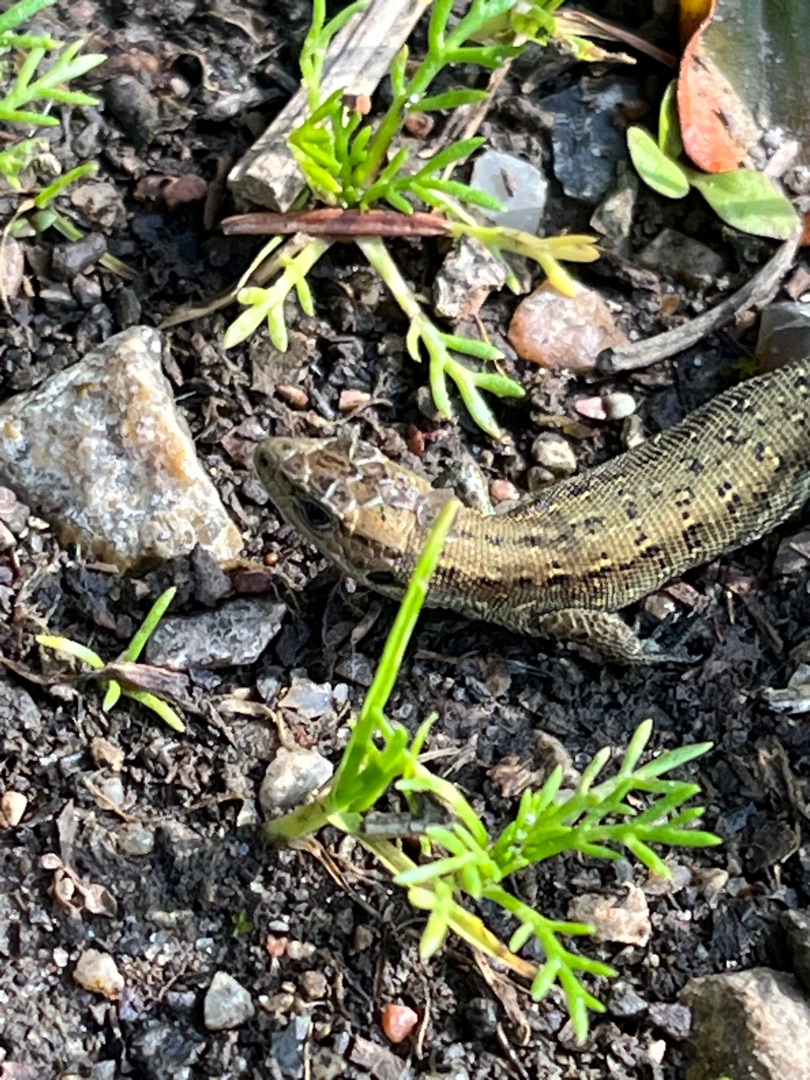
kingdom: Animalia
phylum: Chordata
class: Squamata
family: Lacertidae
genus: Zootoca
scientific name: Zootoca vivipara
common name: Skovfirben
